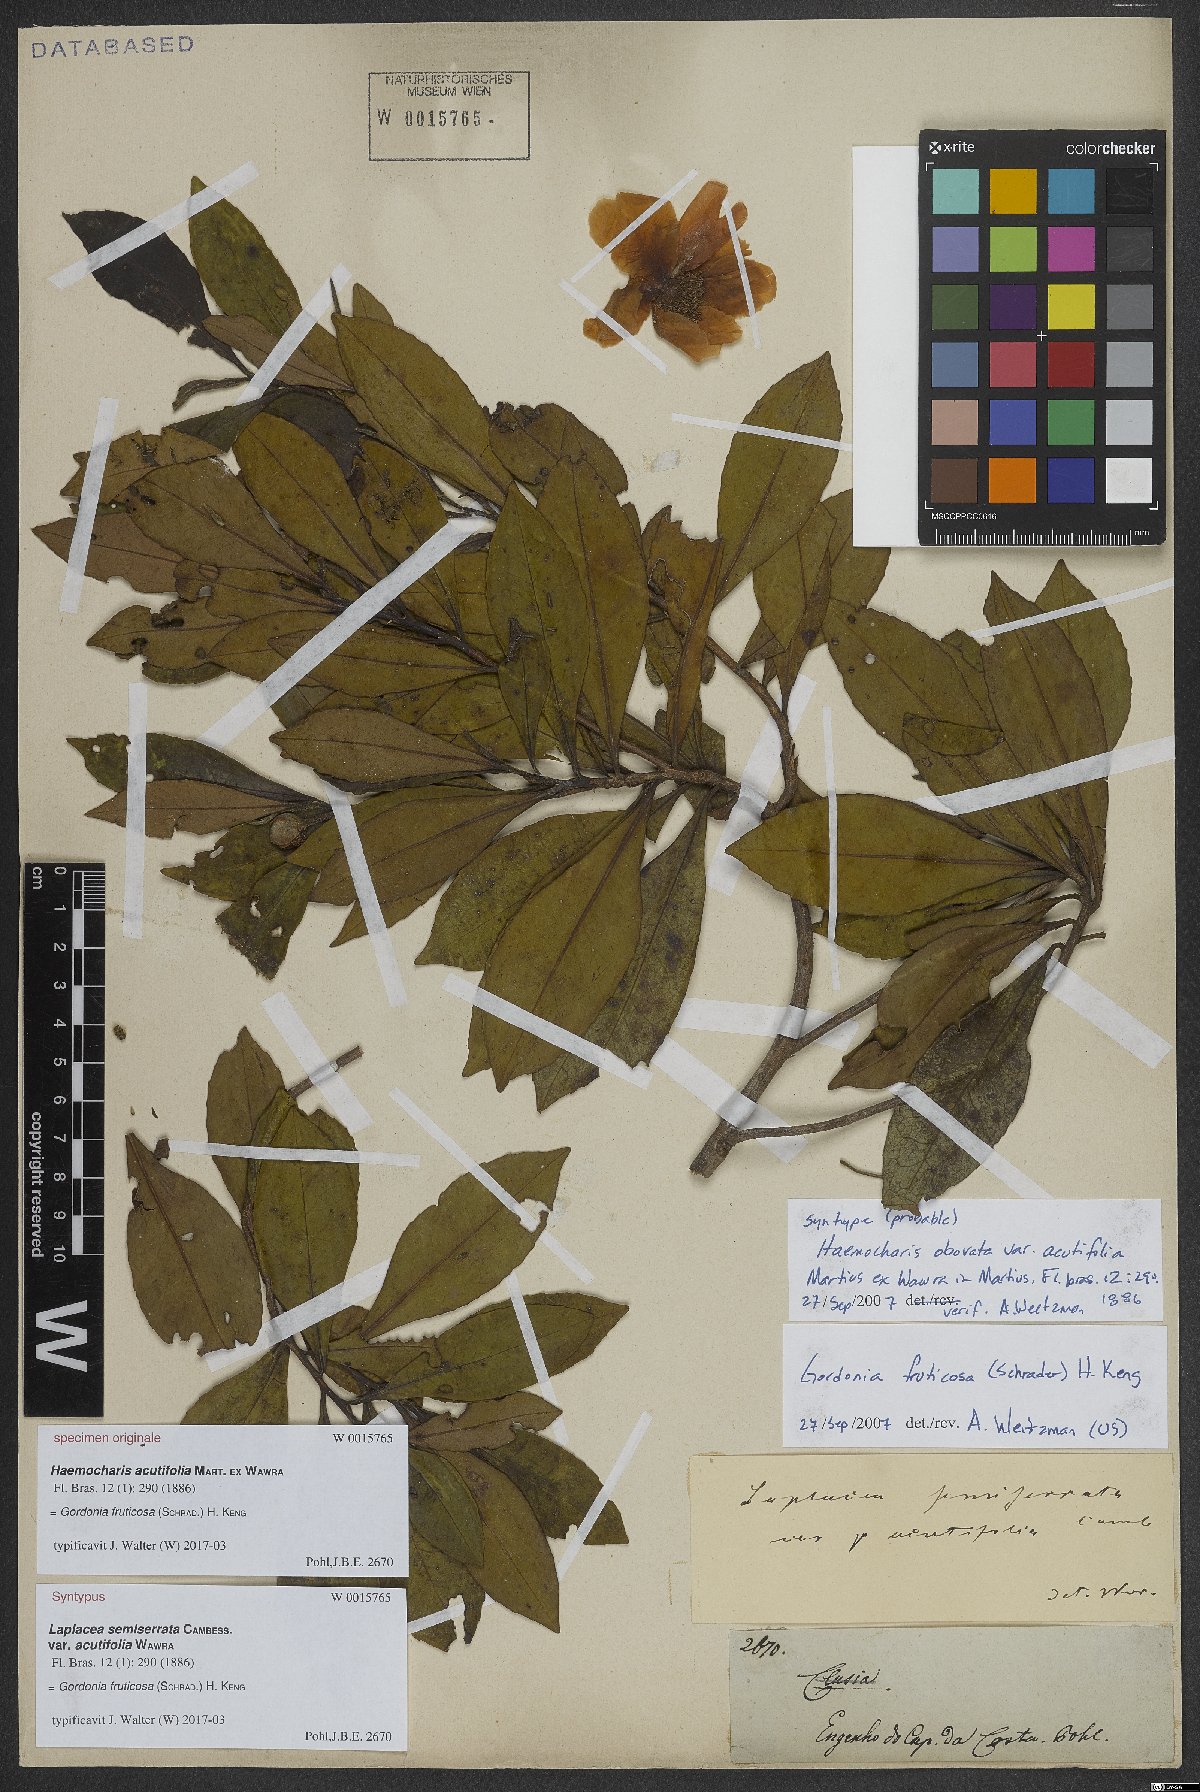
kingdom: Plantae
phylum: Tracheophyta
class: Magnoliopsida
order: Ericales
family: Theaceae
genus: Gordonia
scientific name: Gordonia fruticosa
